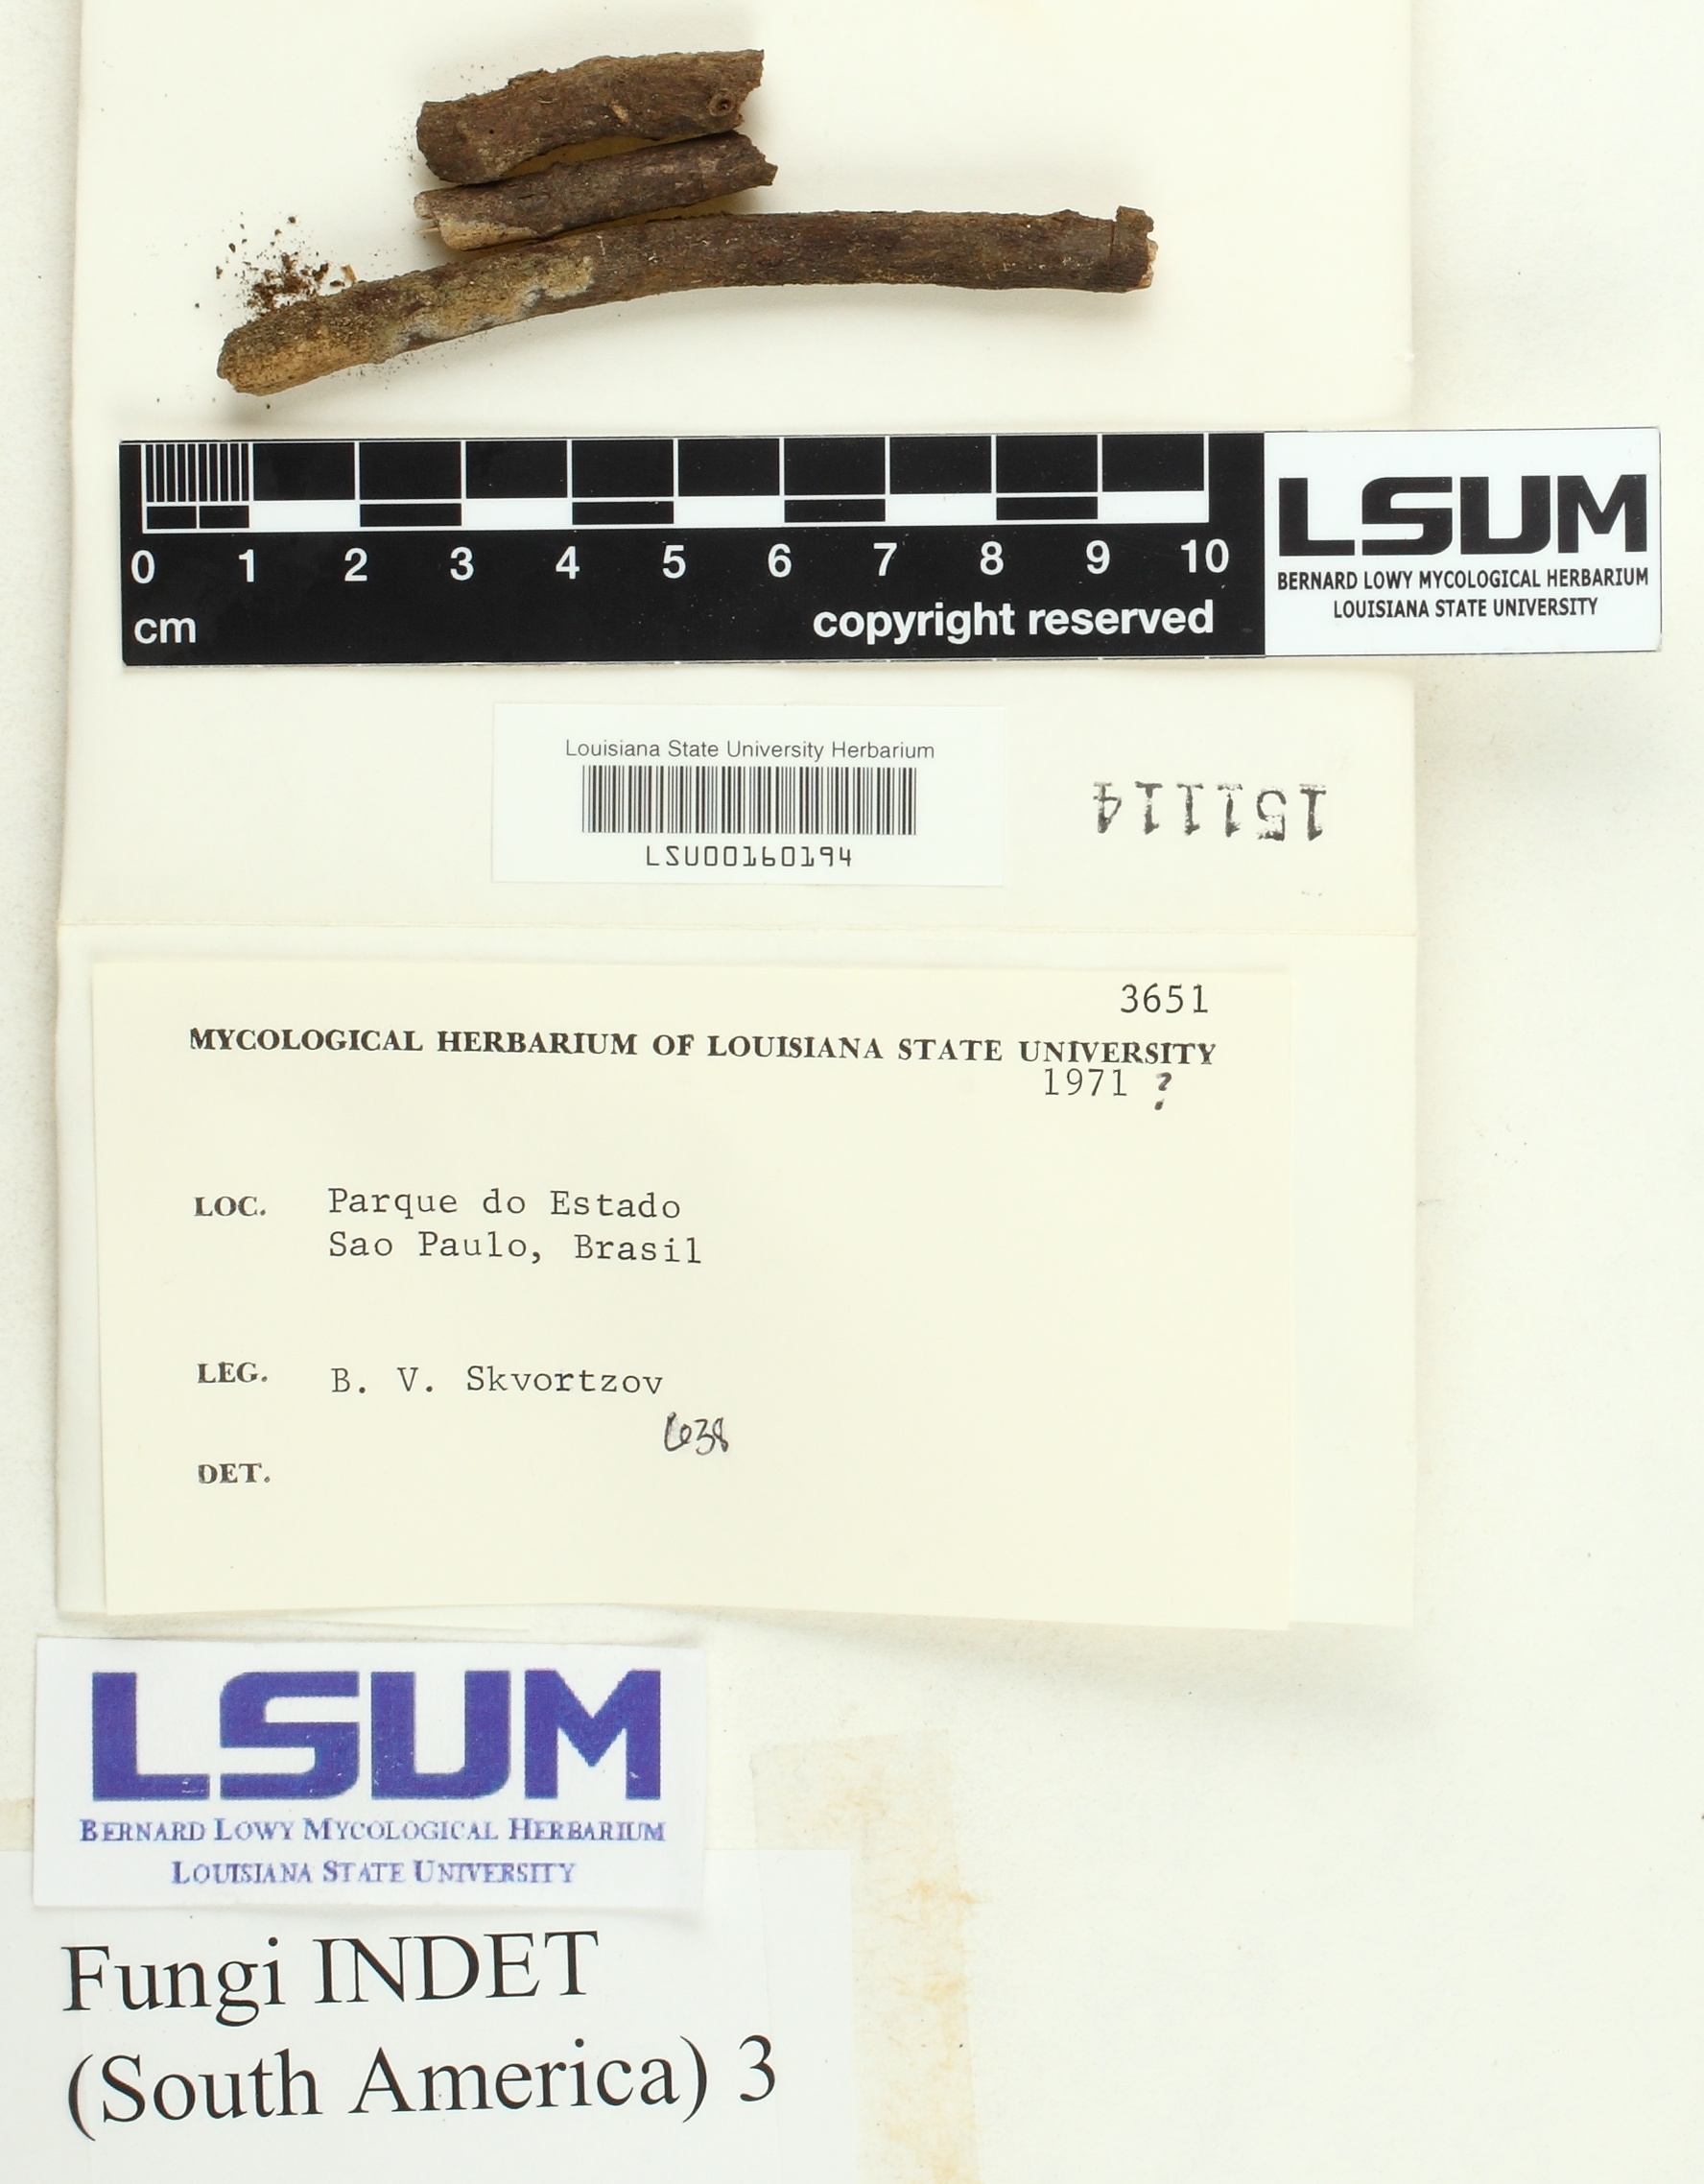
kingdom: Fungi
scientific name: Fungi
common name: Fungi
